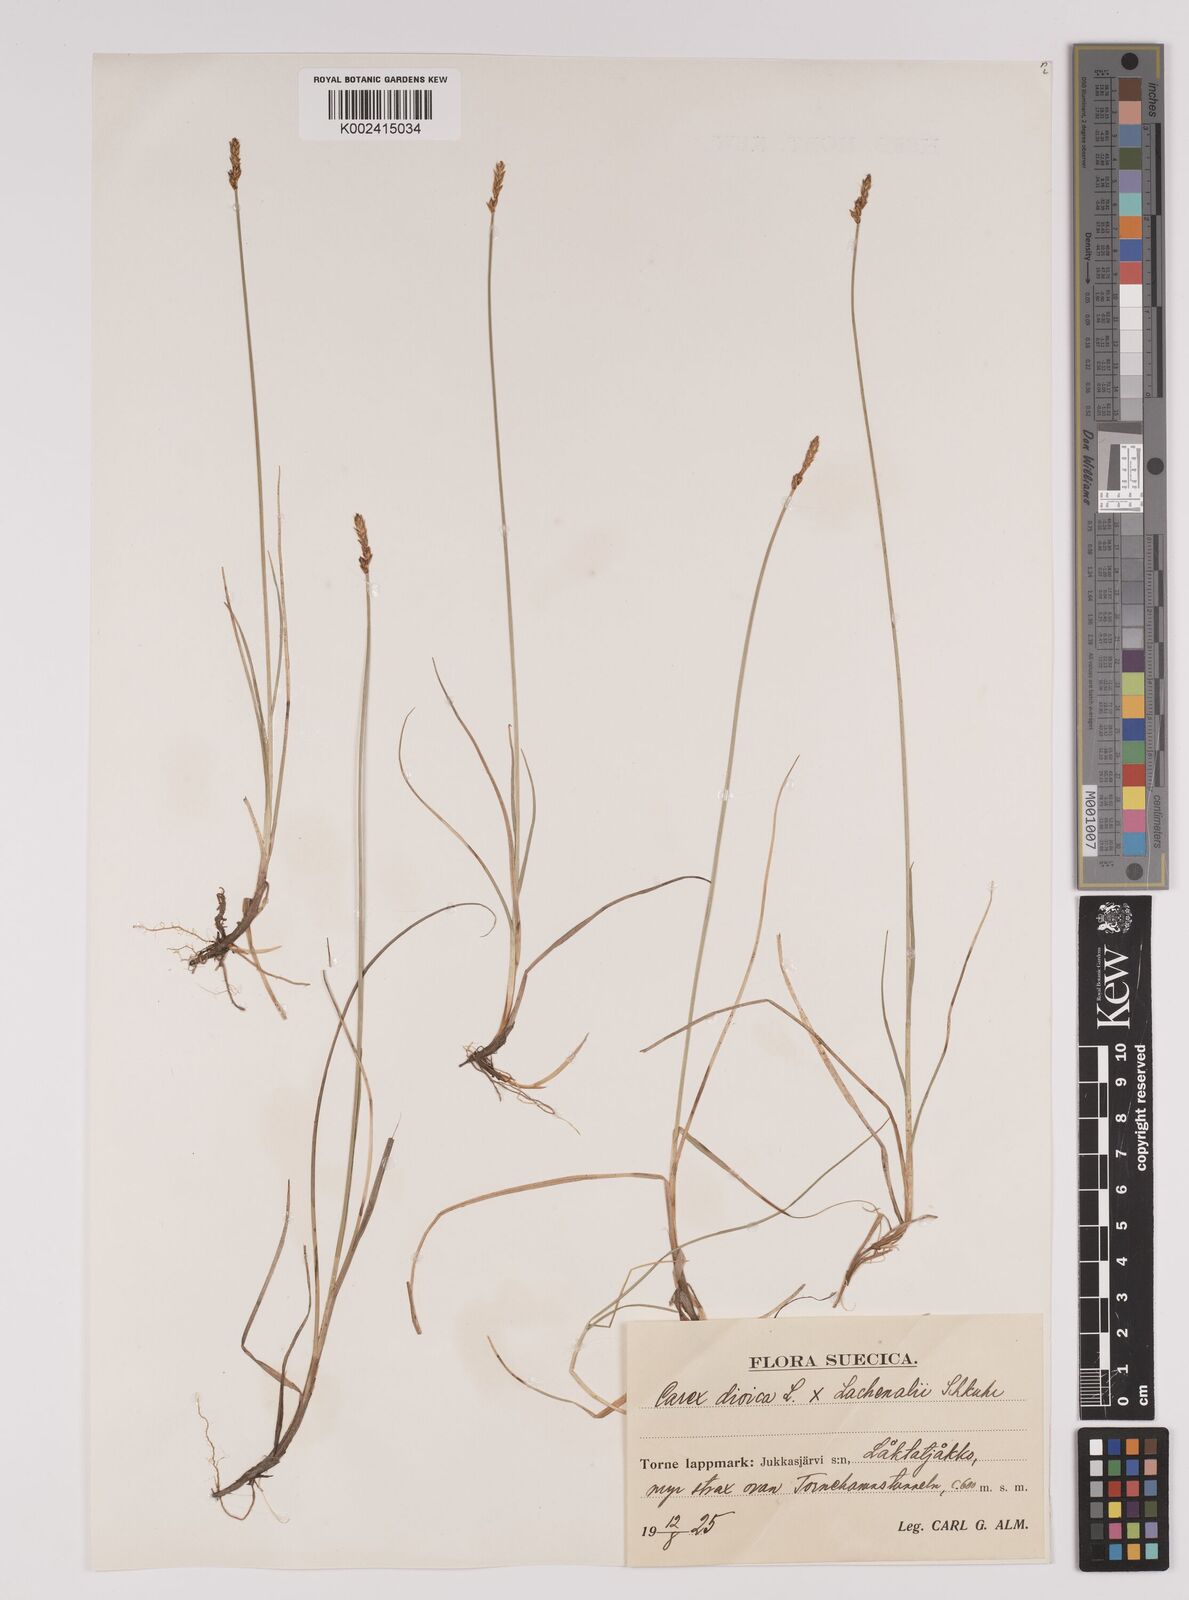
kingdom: Plantae
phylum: Tracheophyta
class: Liliopsida
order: Poales
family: Cyperaceae
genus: Carex
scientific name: Carex dioica
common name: Dioecious sedge
